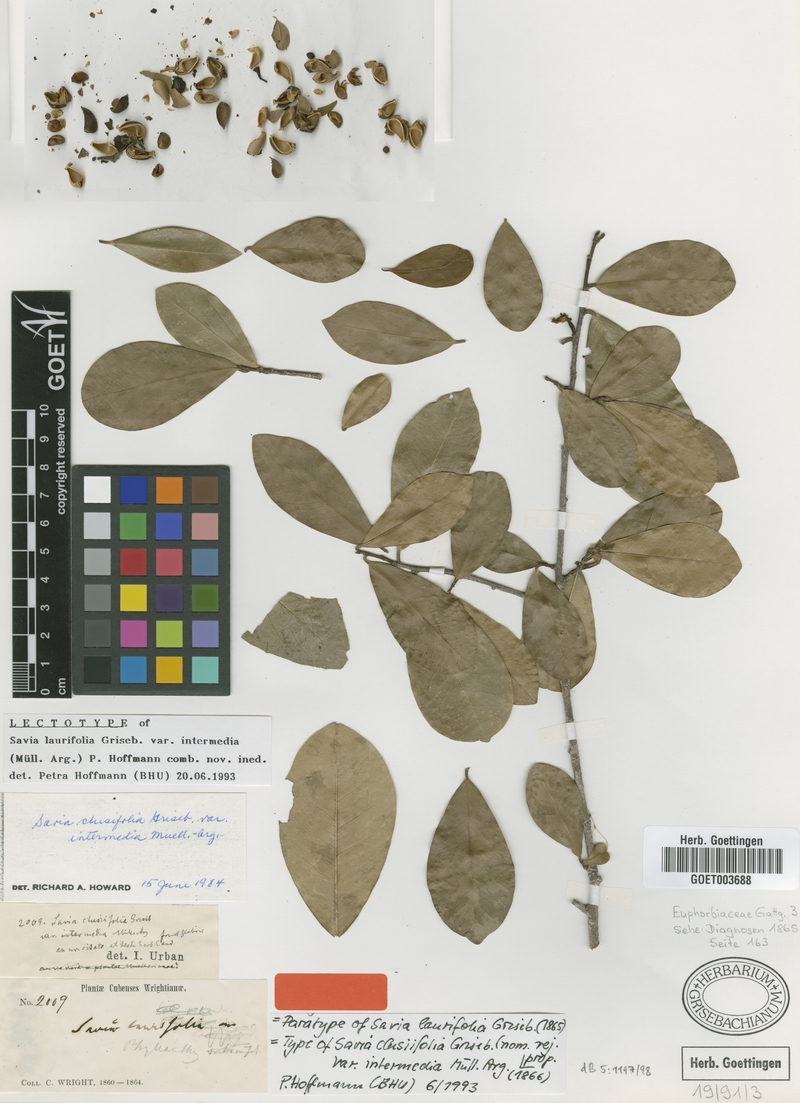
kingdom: Plantae
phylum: Tracheophyta
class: Magnoliopsida
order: Malpighiales
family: Phyllanthaceae
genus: Heterosavia
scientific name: Heterosavia laurifolia
